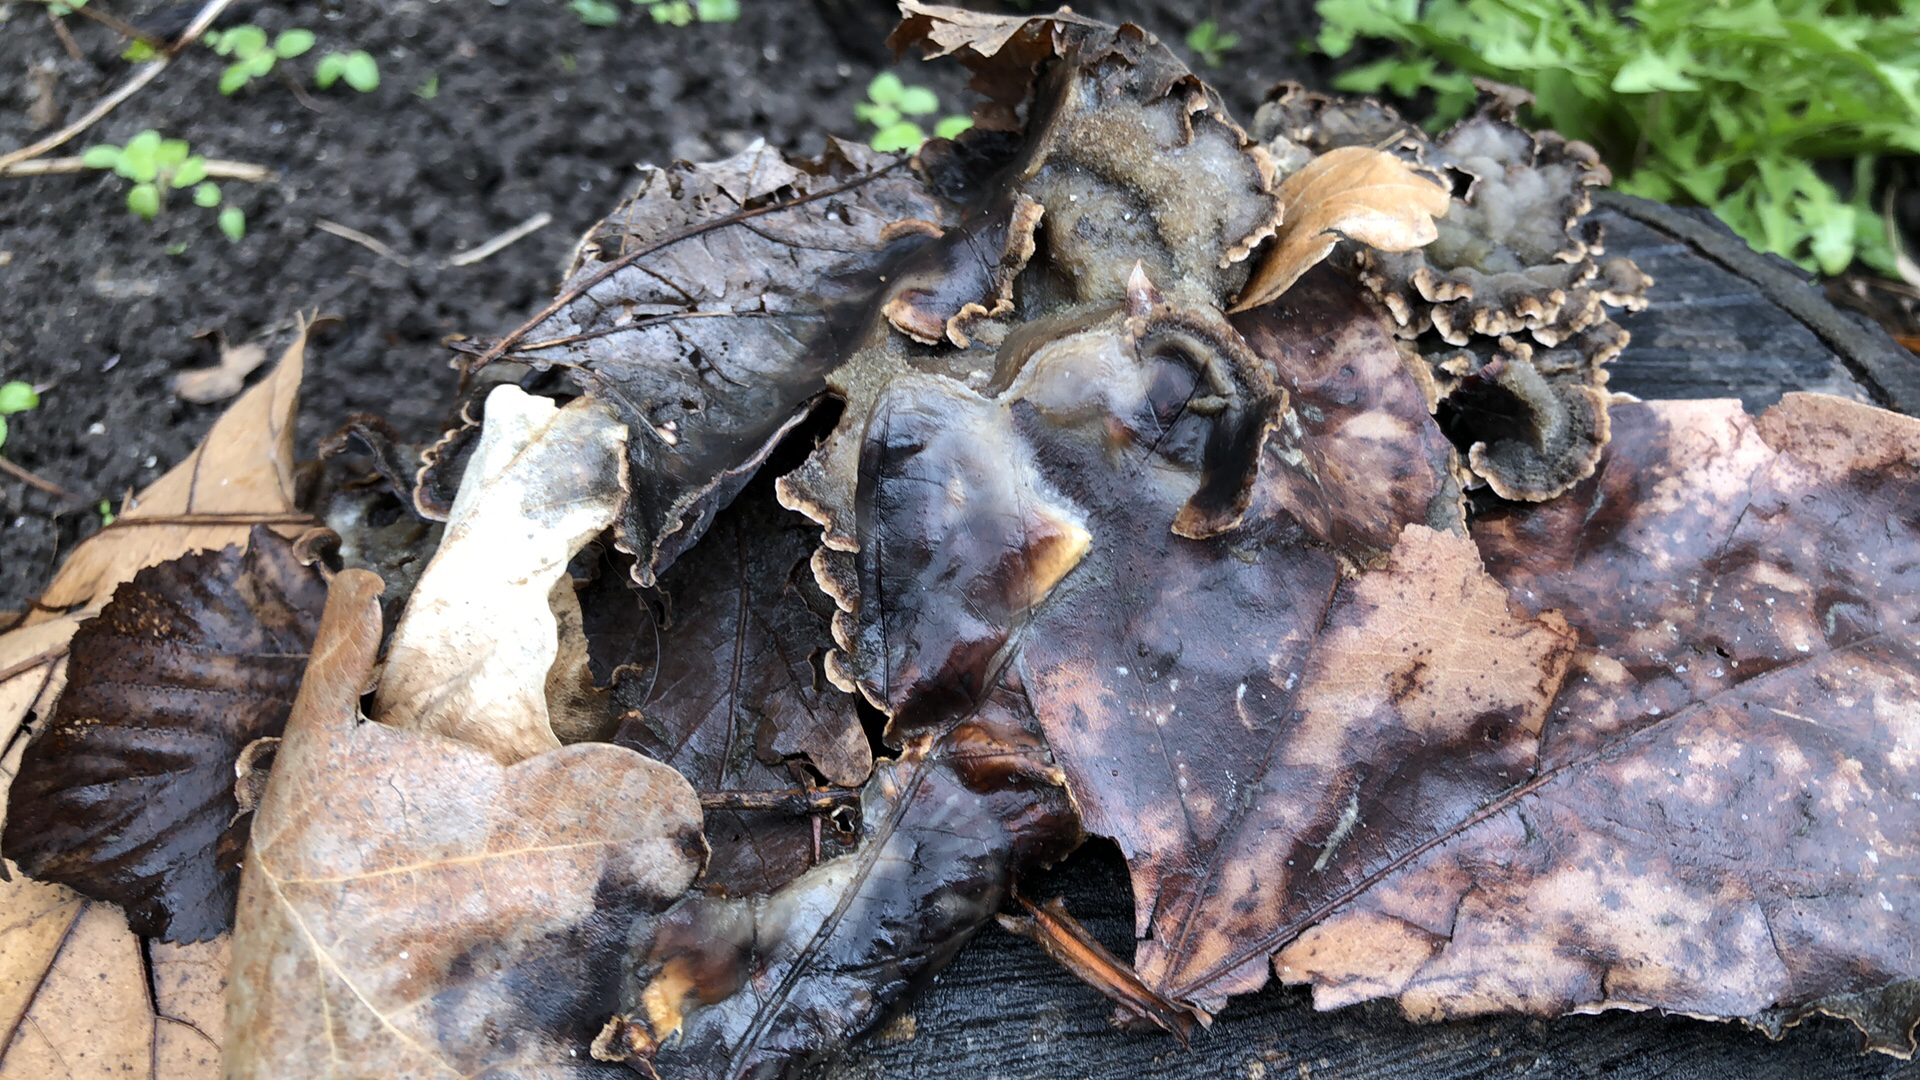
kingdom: Fungi
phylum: Basidiomycota
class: Agaricomycetes
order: Agaricales
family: Cyphellaceae
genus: Chondrostereum
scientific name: Chondrostereum purpureum
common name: purpurlædersvamp
